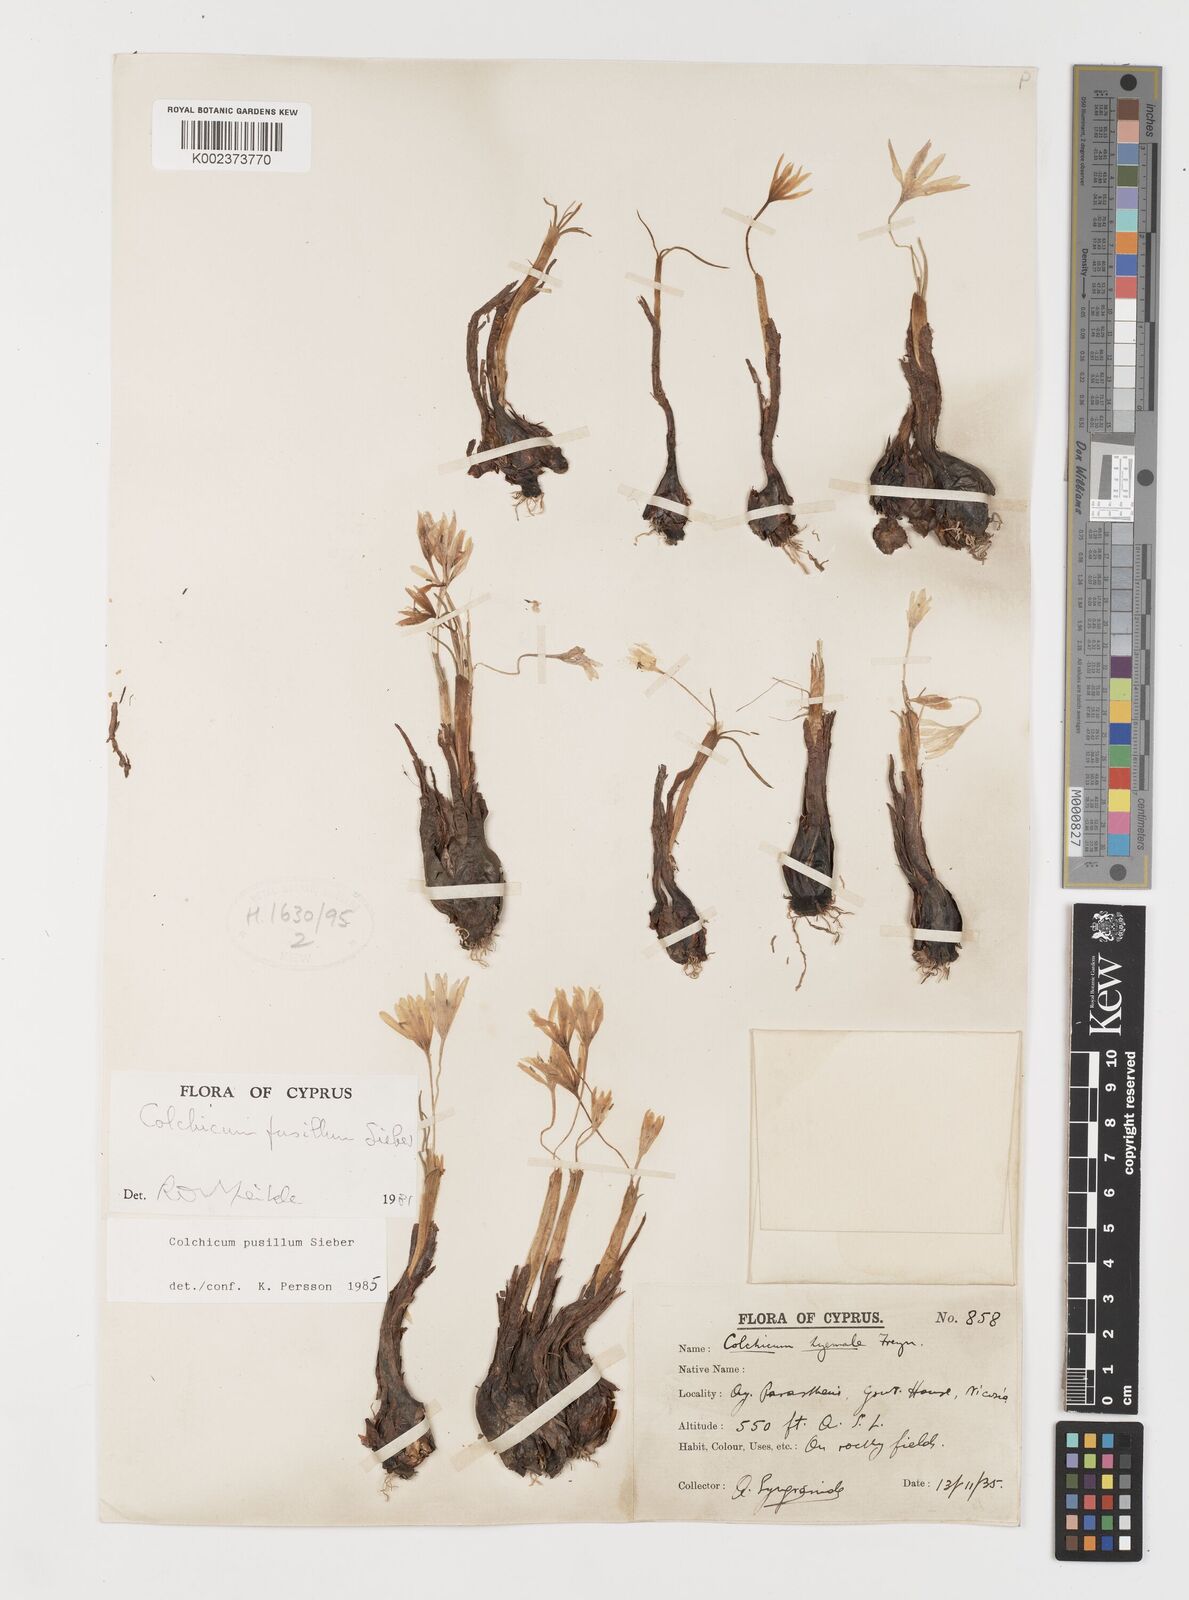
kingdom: Plantae
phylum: Tracheophyta
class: Liliopsida
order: Liliales
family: Colchicaceae
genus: Colchicum
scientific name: Colchicum pusillum
